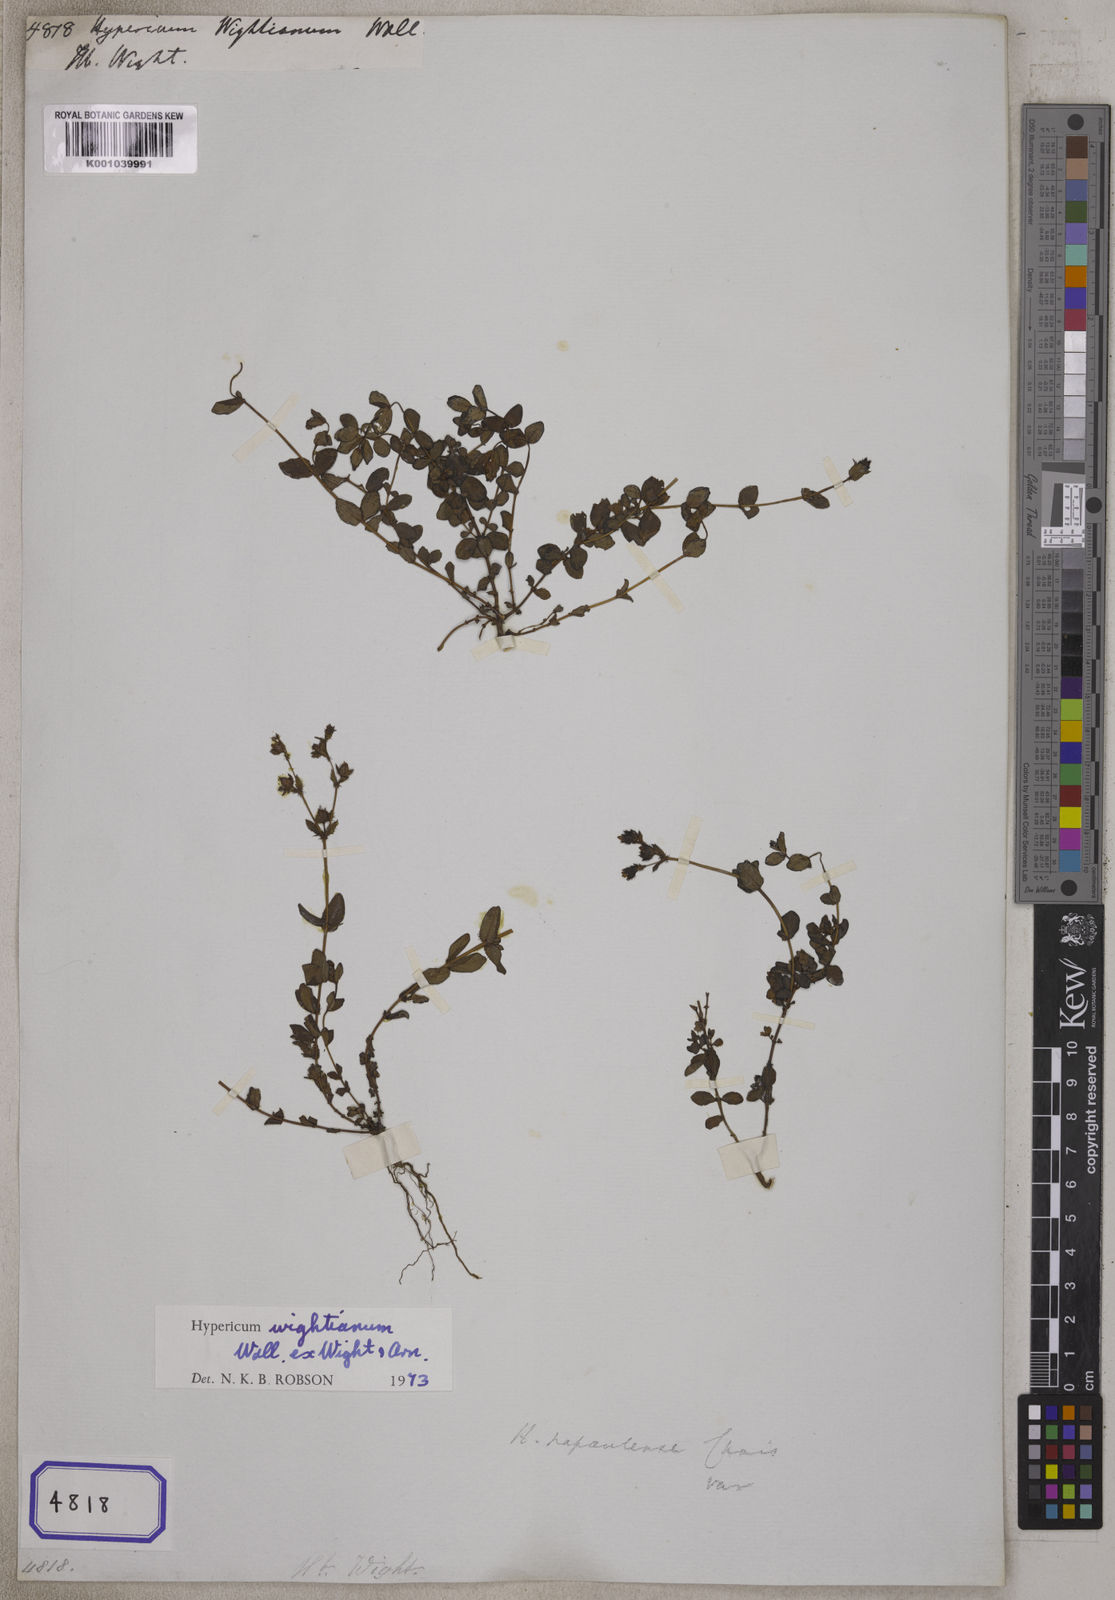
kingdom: Plantae
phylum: Tracheophyta
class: Magnoliopsida
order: Malpighiales
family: Hypericaceae
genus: Hypericum
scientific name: Hypericum
